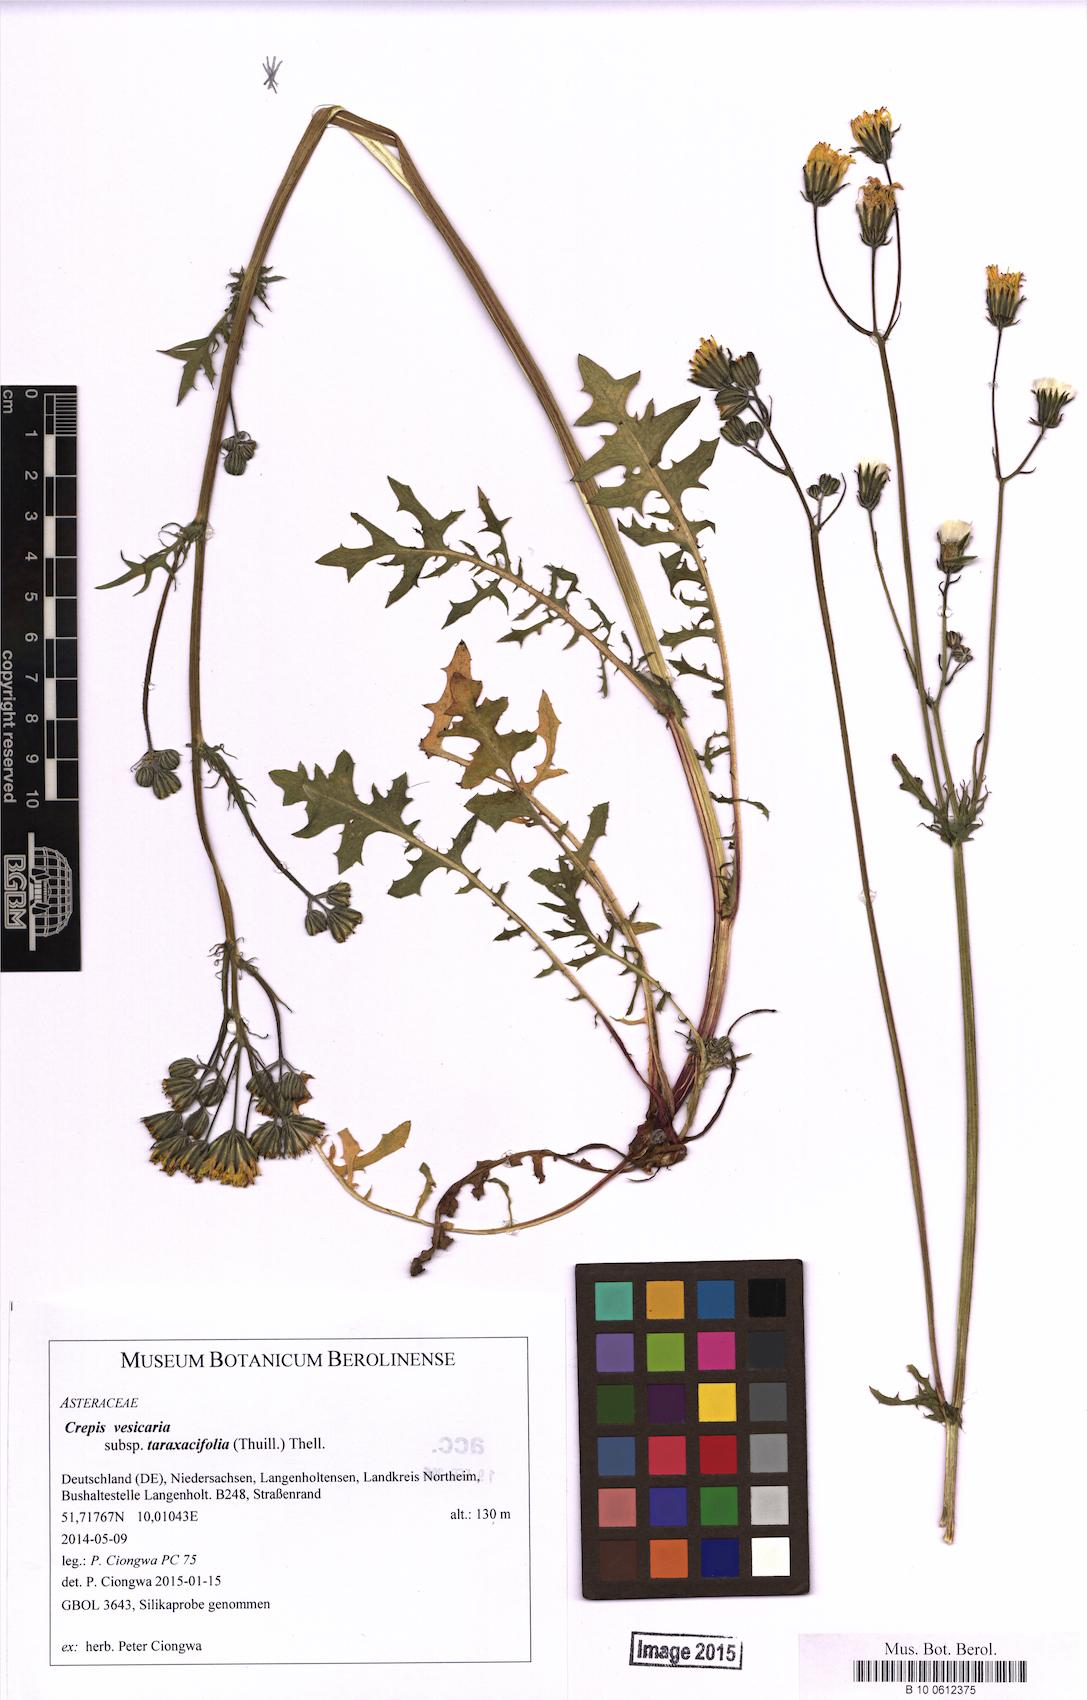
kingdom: Plantae
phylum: Tracheophyta
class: Magnoliopsida
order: Asterales
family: Asteraceae
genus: Crepis
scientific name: Crepis vesicaria
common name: Beaked hawksbeard
